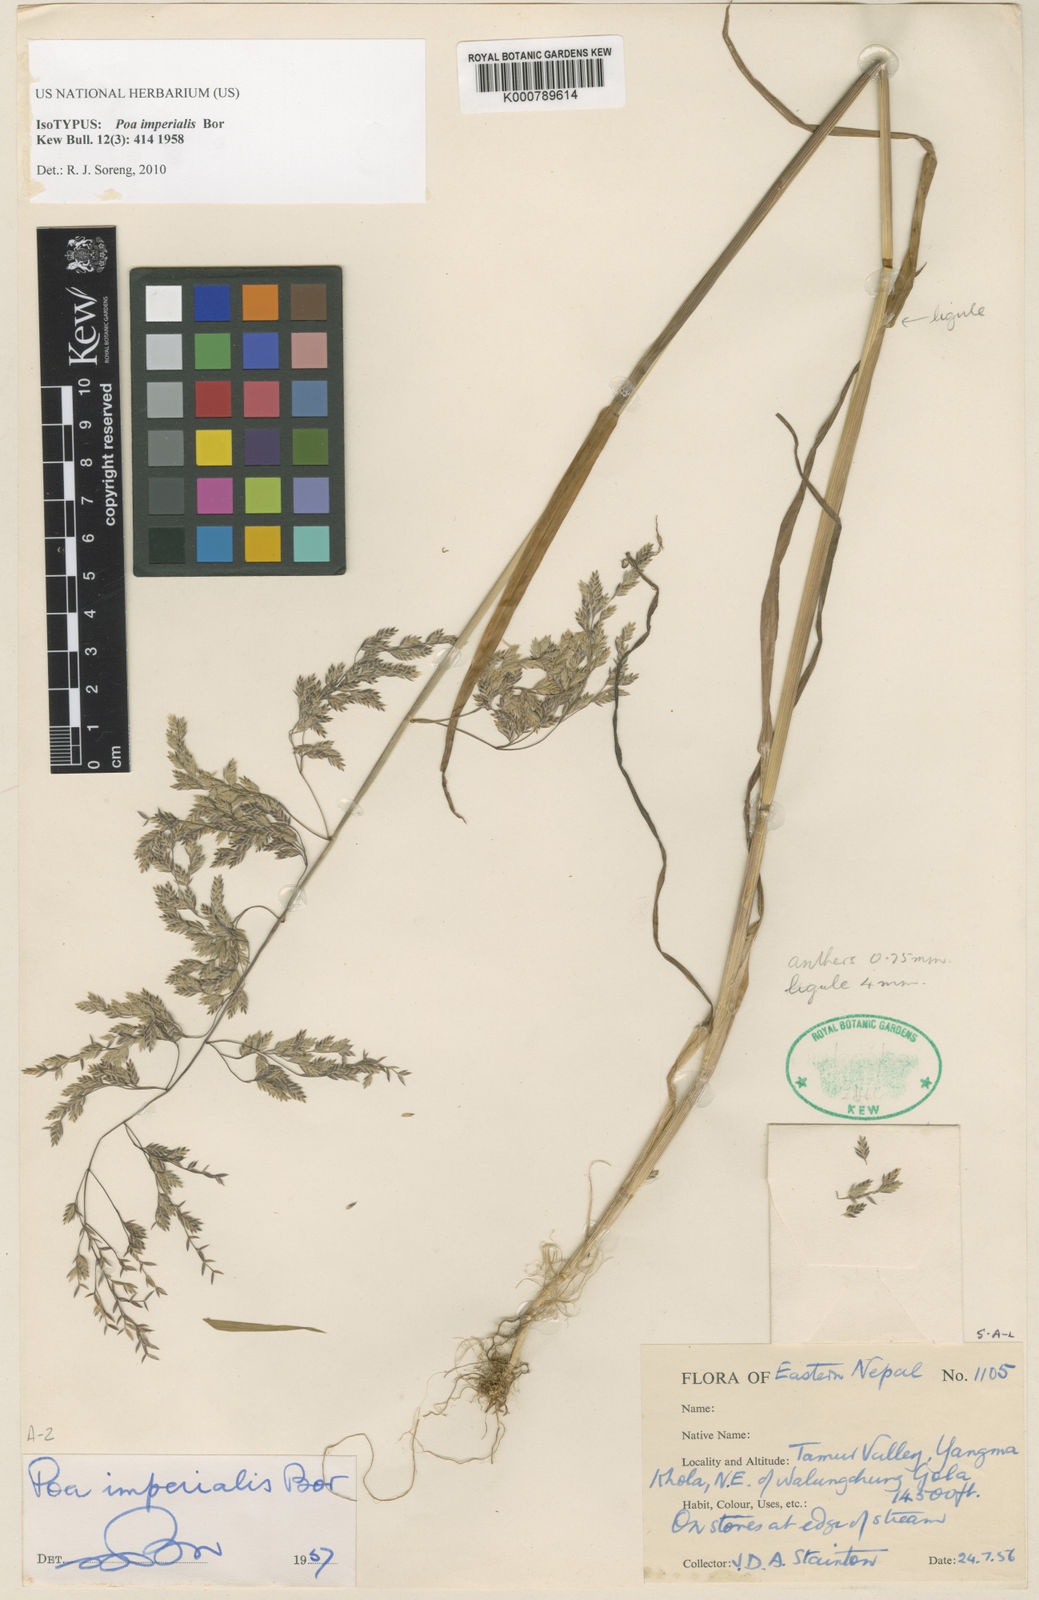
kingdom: Plantae
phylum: Tracheophyta
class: Liliopsida
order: Poales
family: Poaceae
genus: Poa
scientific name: Poa imperialis
